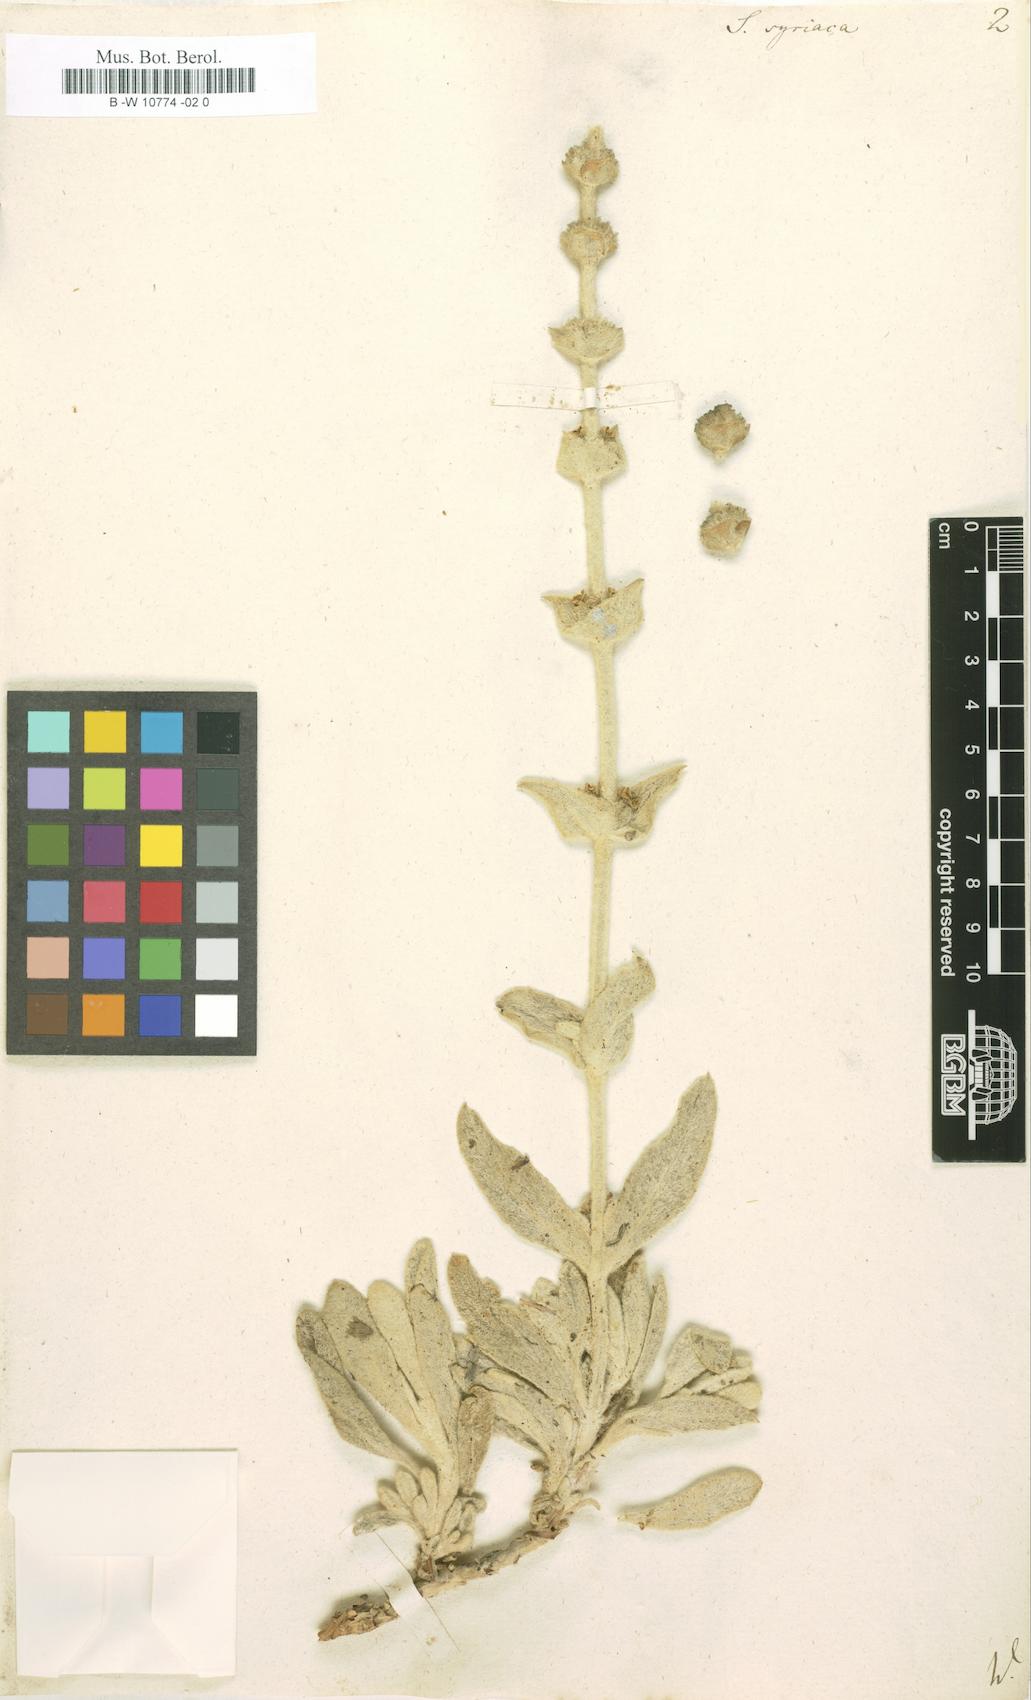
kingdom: Plantae
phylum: Tracheophyta
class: Magnoliopsida
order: Lamiales
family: Lamiaceae
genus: Sideritis
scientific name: Sideritis syriaca
